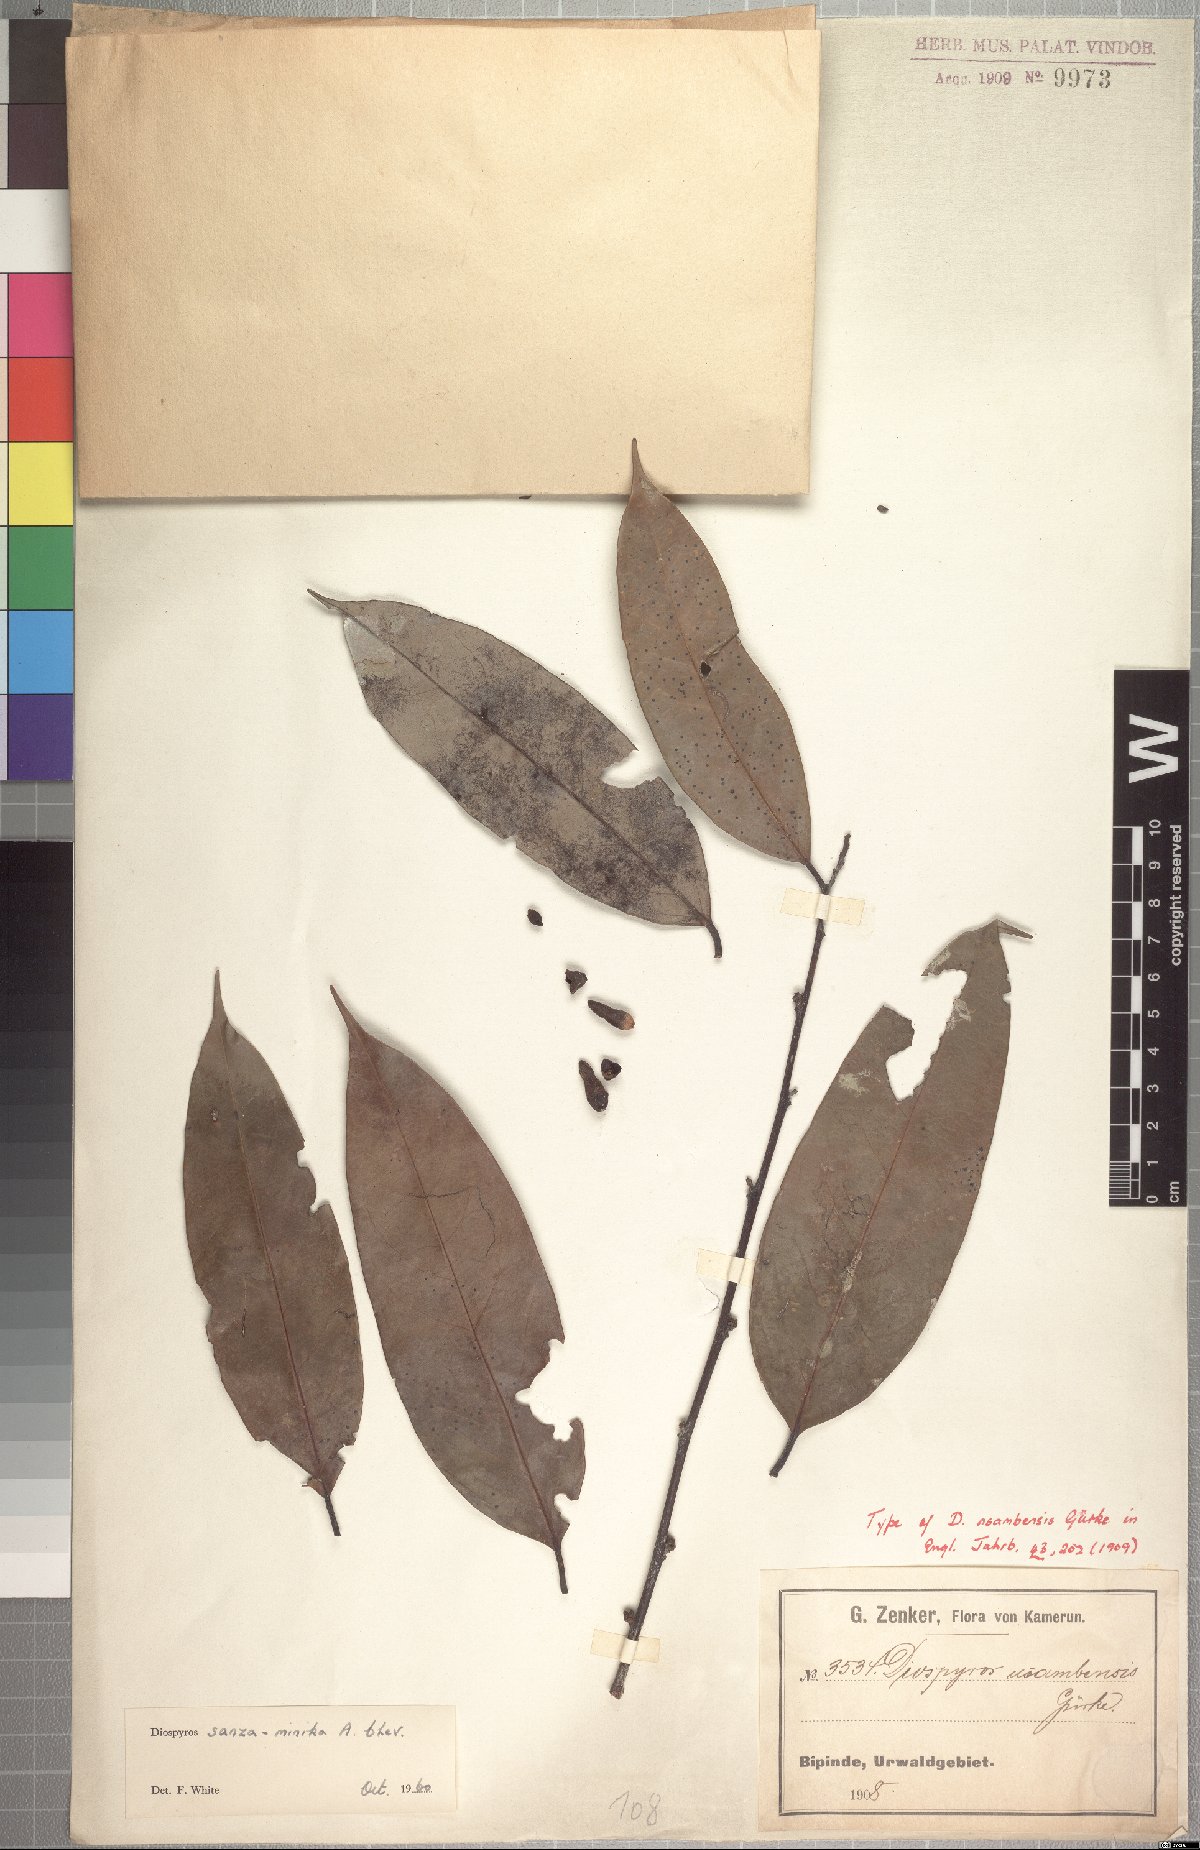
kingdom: Plantae
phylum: Tracheophyta
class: Magnoliopsida
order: Ericales
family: Ebenaceae
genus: Diospyros
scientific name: Diospyros sanza-minika
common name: Flint bark
